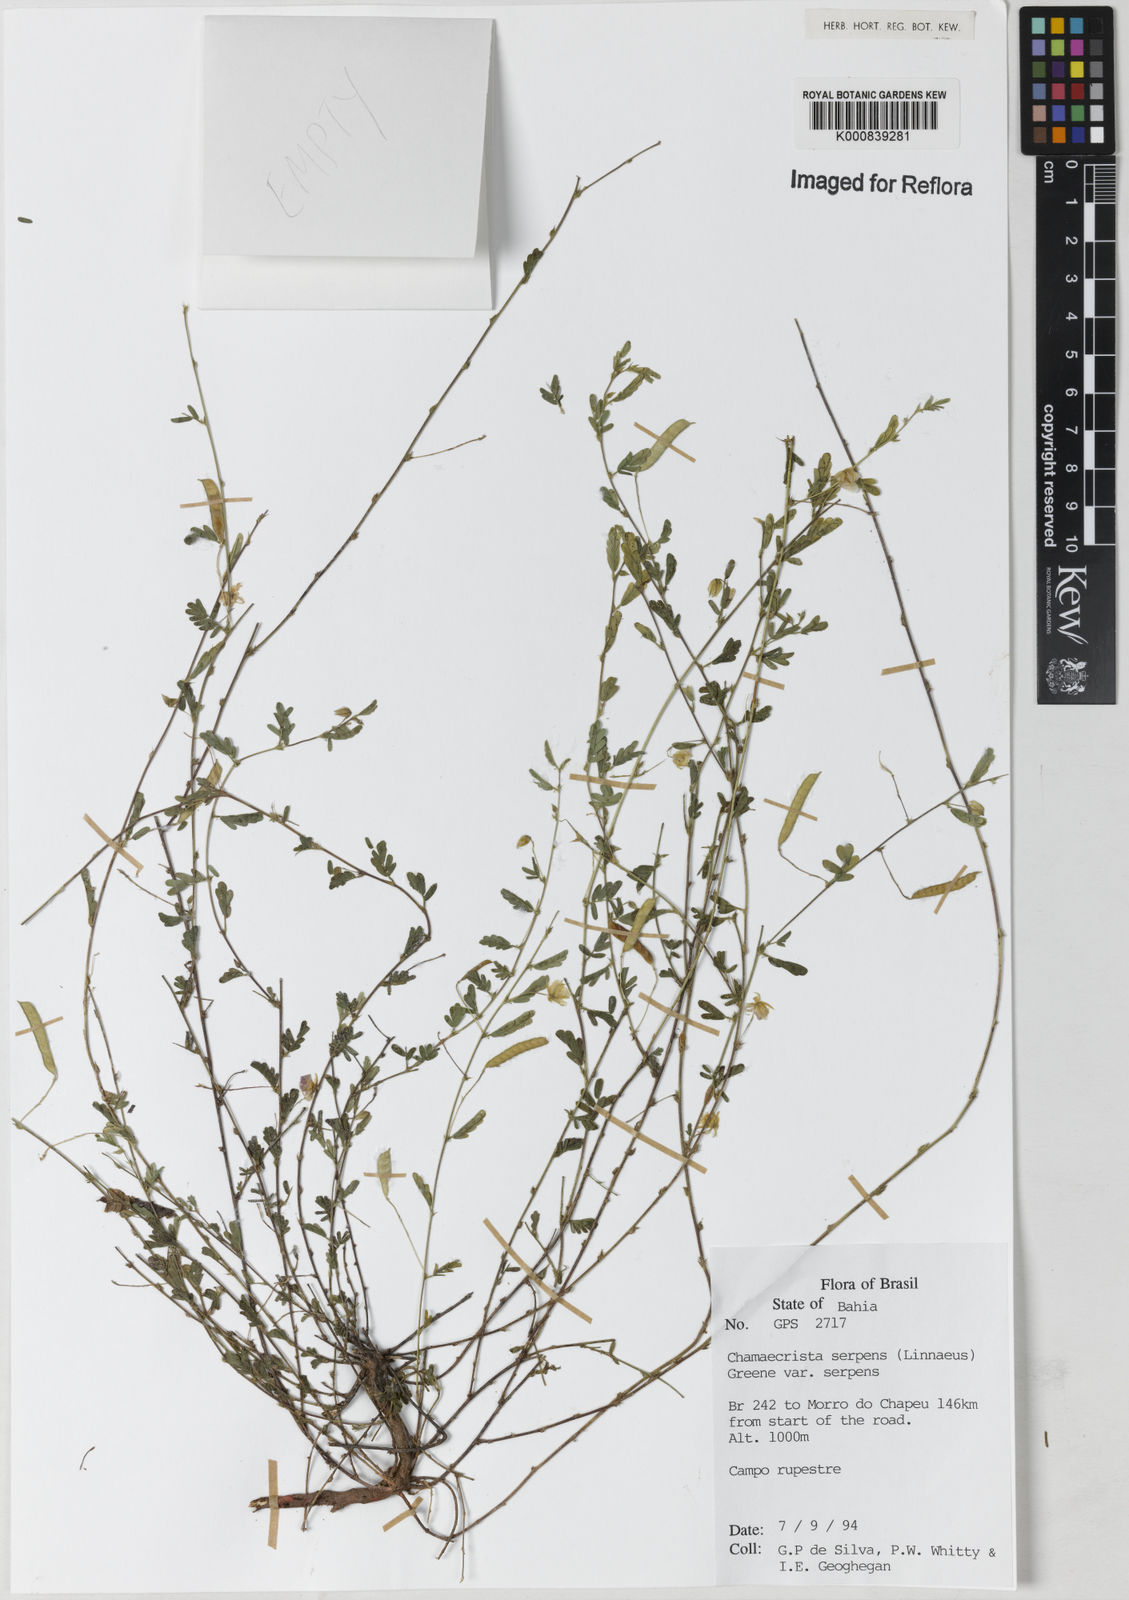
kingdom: Plantae
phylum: Tracheophyta
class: Magnoliopsida
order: Fabales
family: Fabaceae
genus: Chamaecrista
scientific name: Chamaecrista serpens
